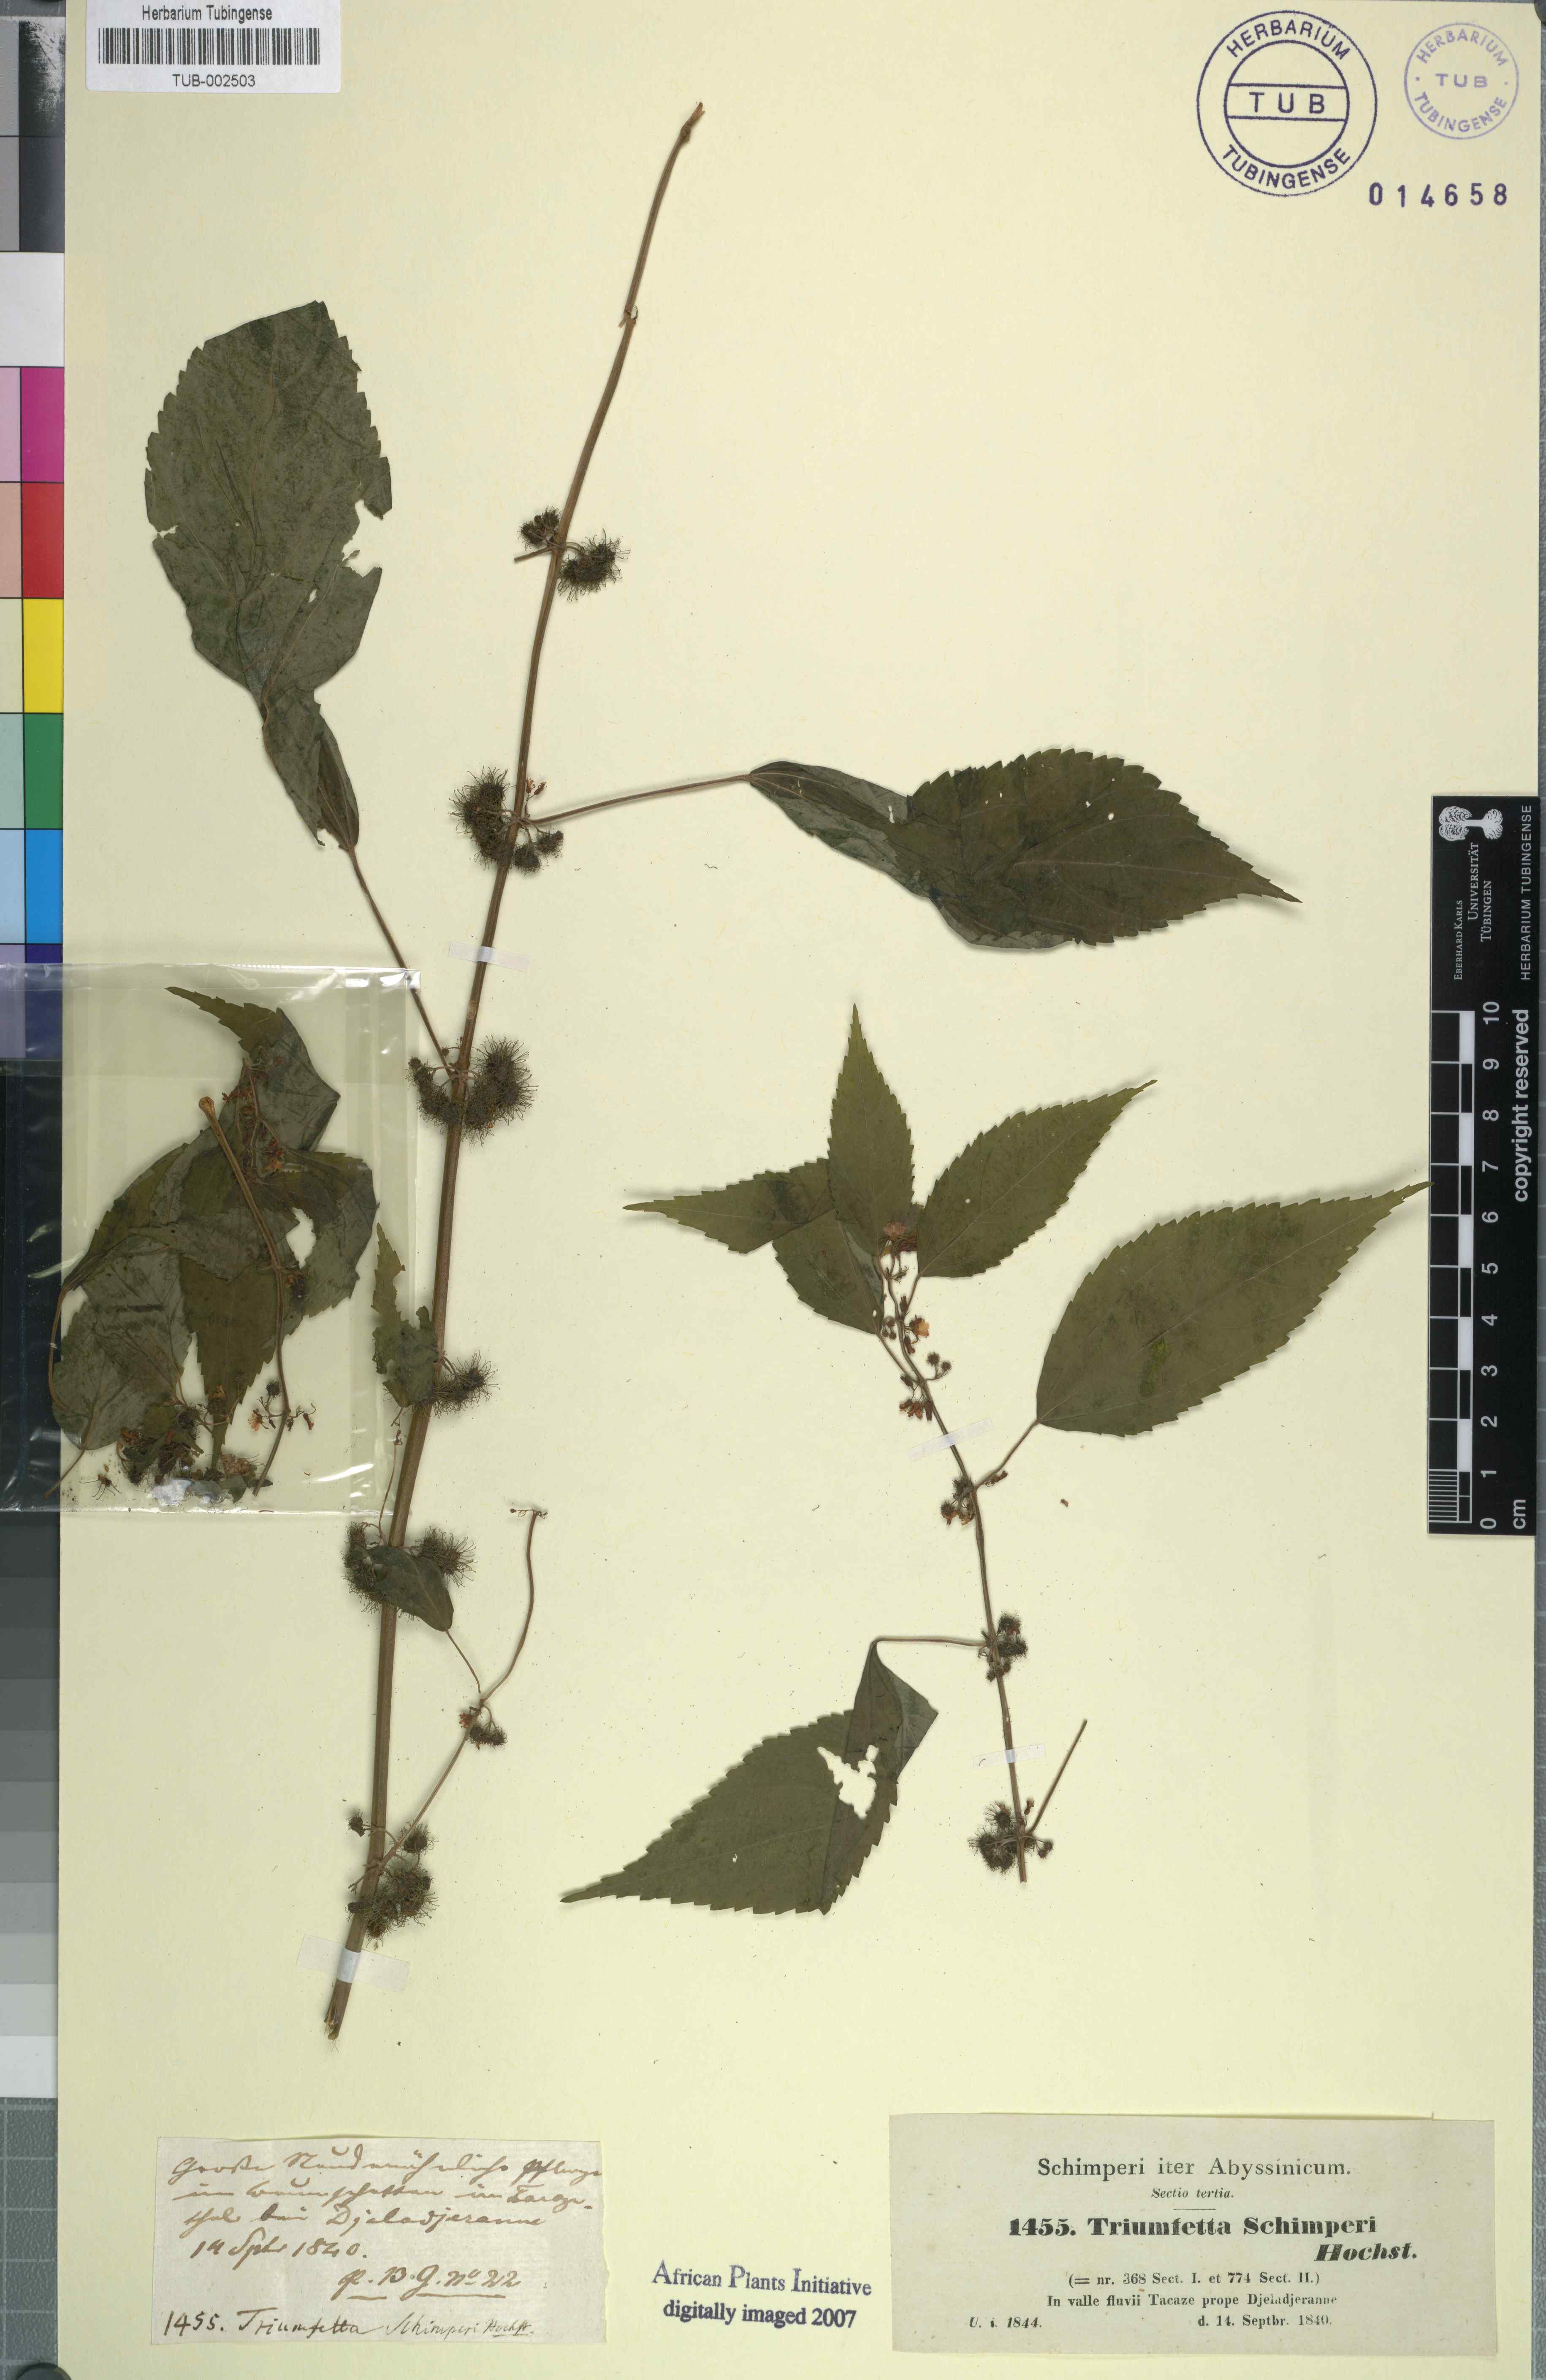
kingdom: Plantae
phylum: Tracheophyta
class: Magnoliopsida
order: Malvales
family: Malvaceae
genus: Triumfetta
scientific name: Triumfetta annua
